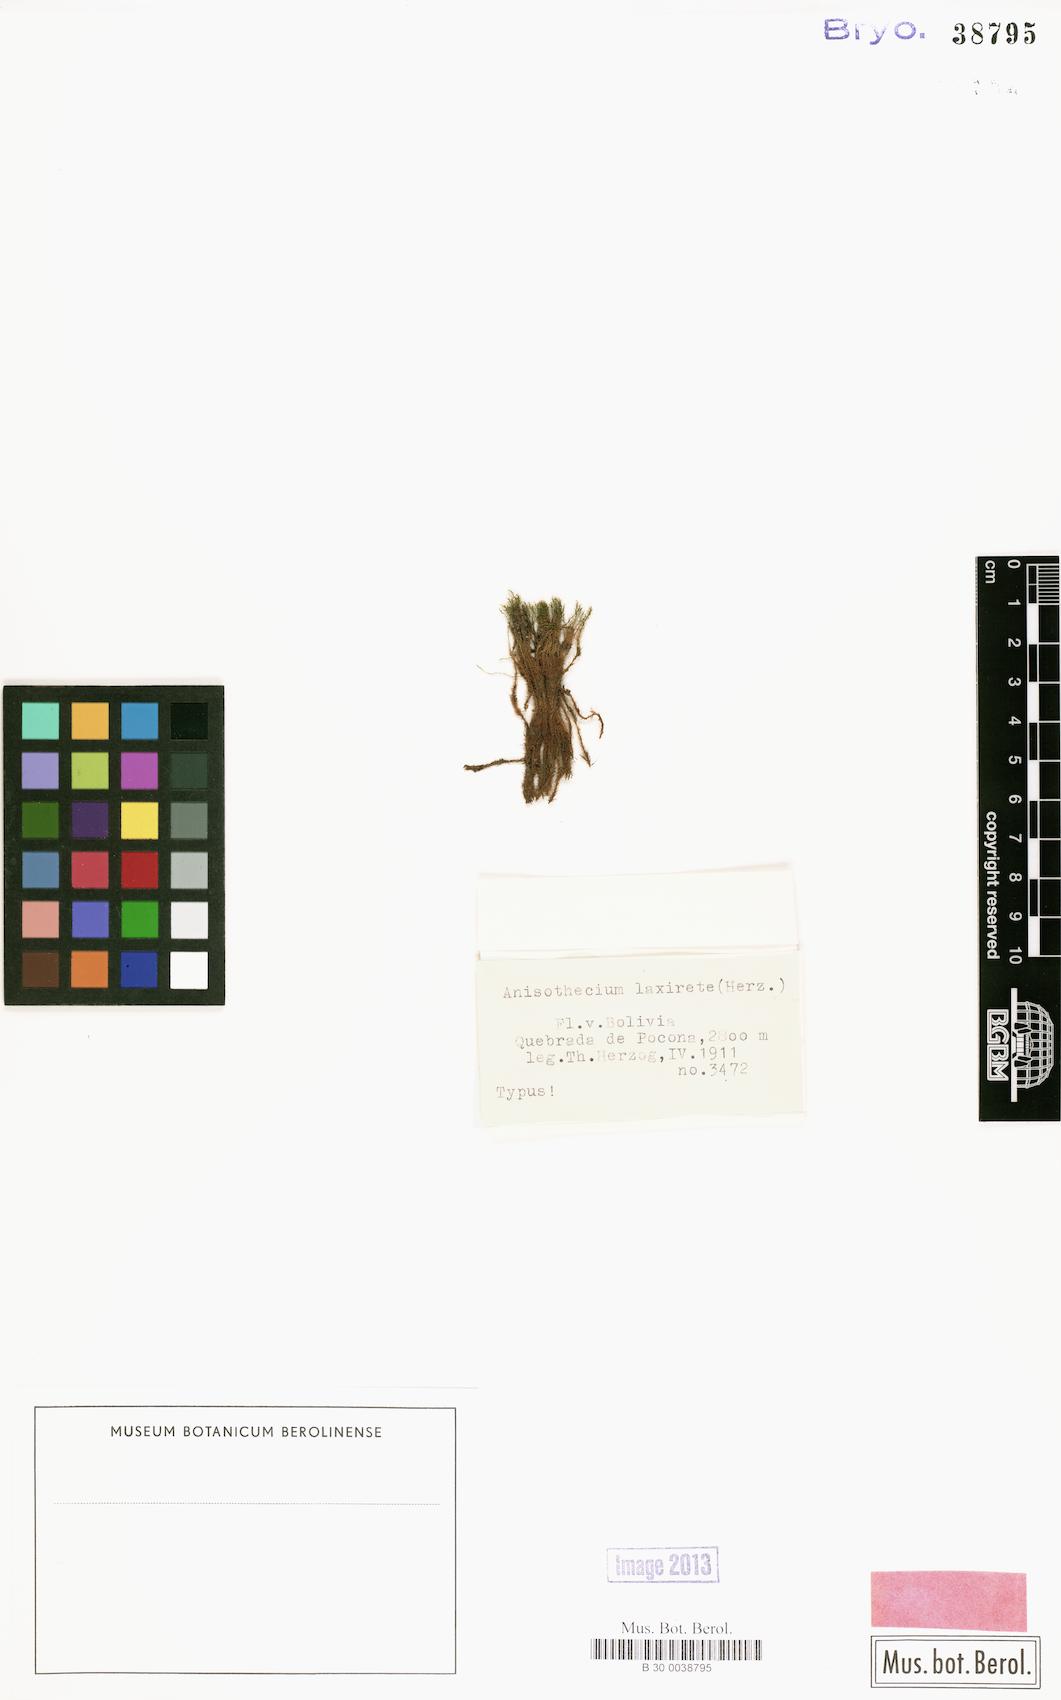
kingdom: Plantae
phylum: Bryophyta
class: Bryopsida
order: Dicranales
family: Dicranellaceae
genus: Dicranella
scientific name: Dicranella hilariana
